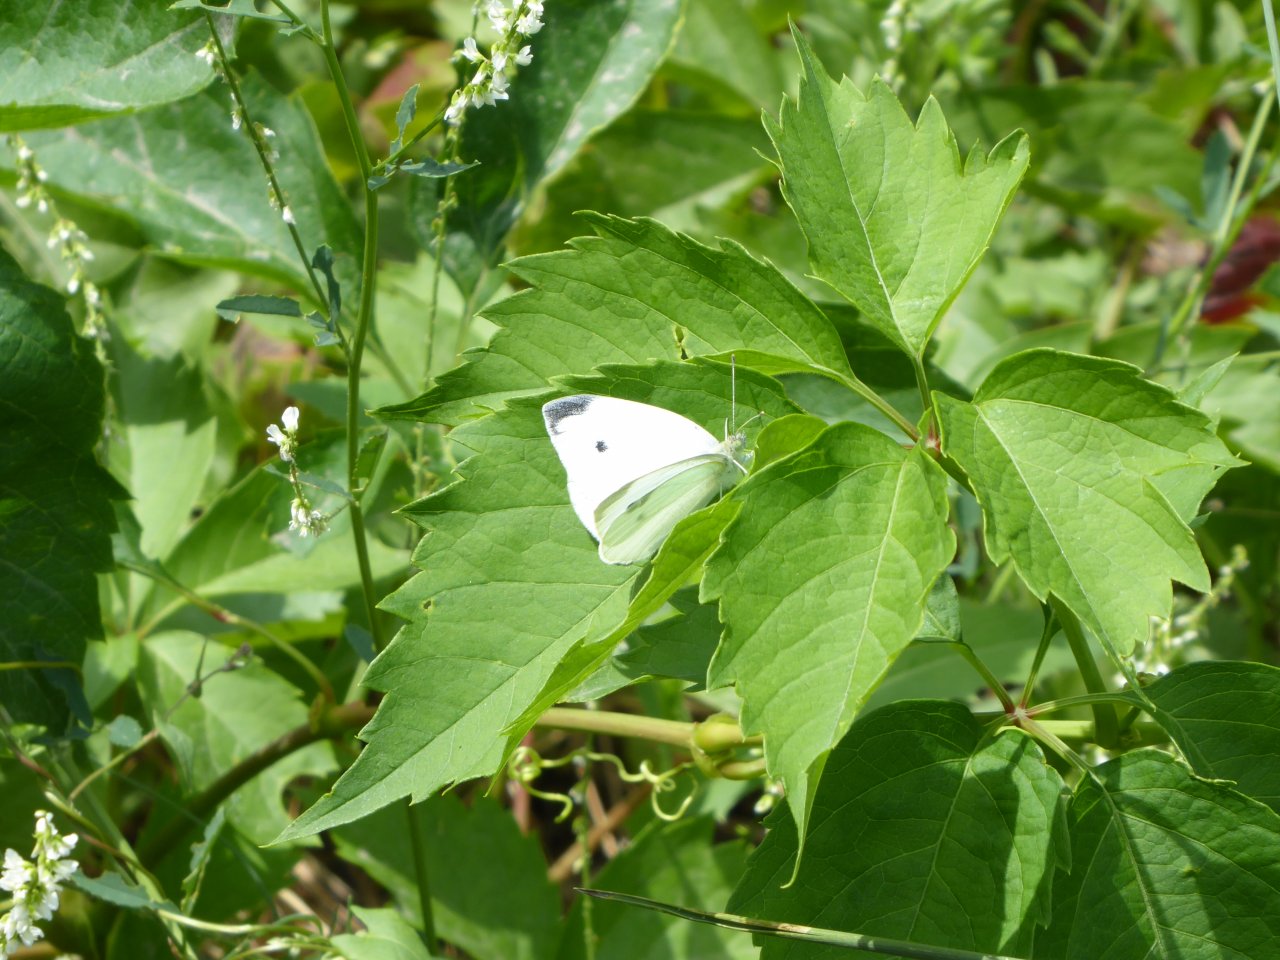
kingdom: Animalia
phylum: Arthropoda
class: Insecta
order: Lepidoptera
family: Pieridae
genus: Pieris
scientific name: Pieris rapae
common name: Cabbage White
